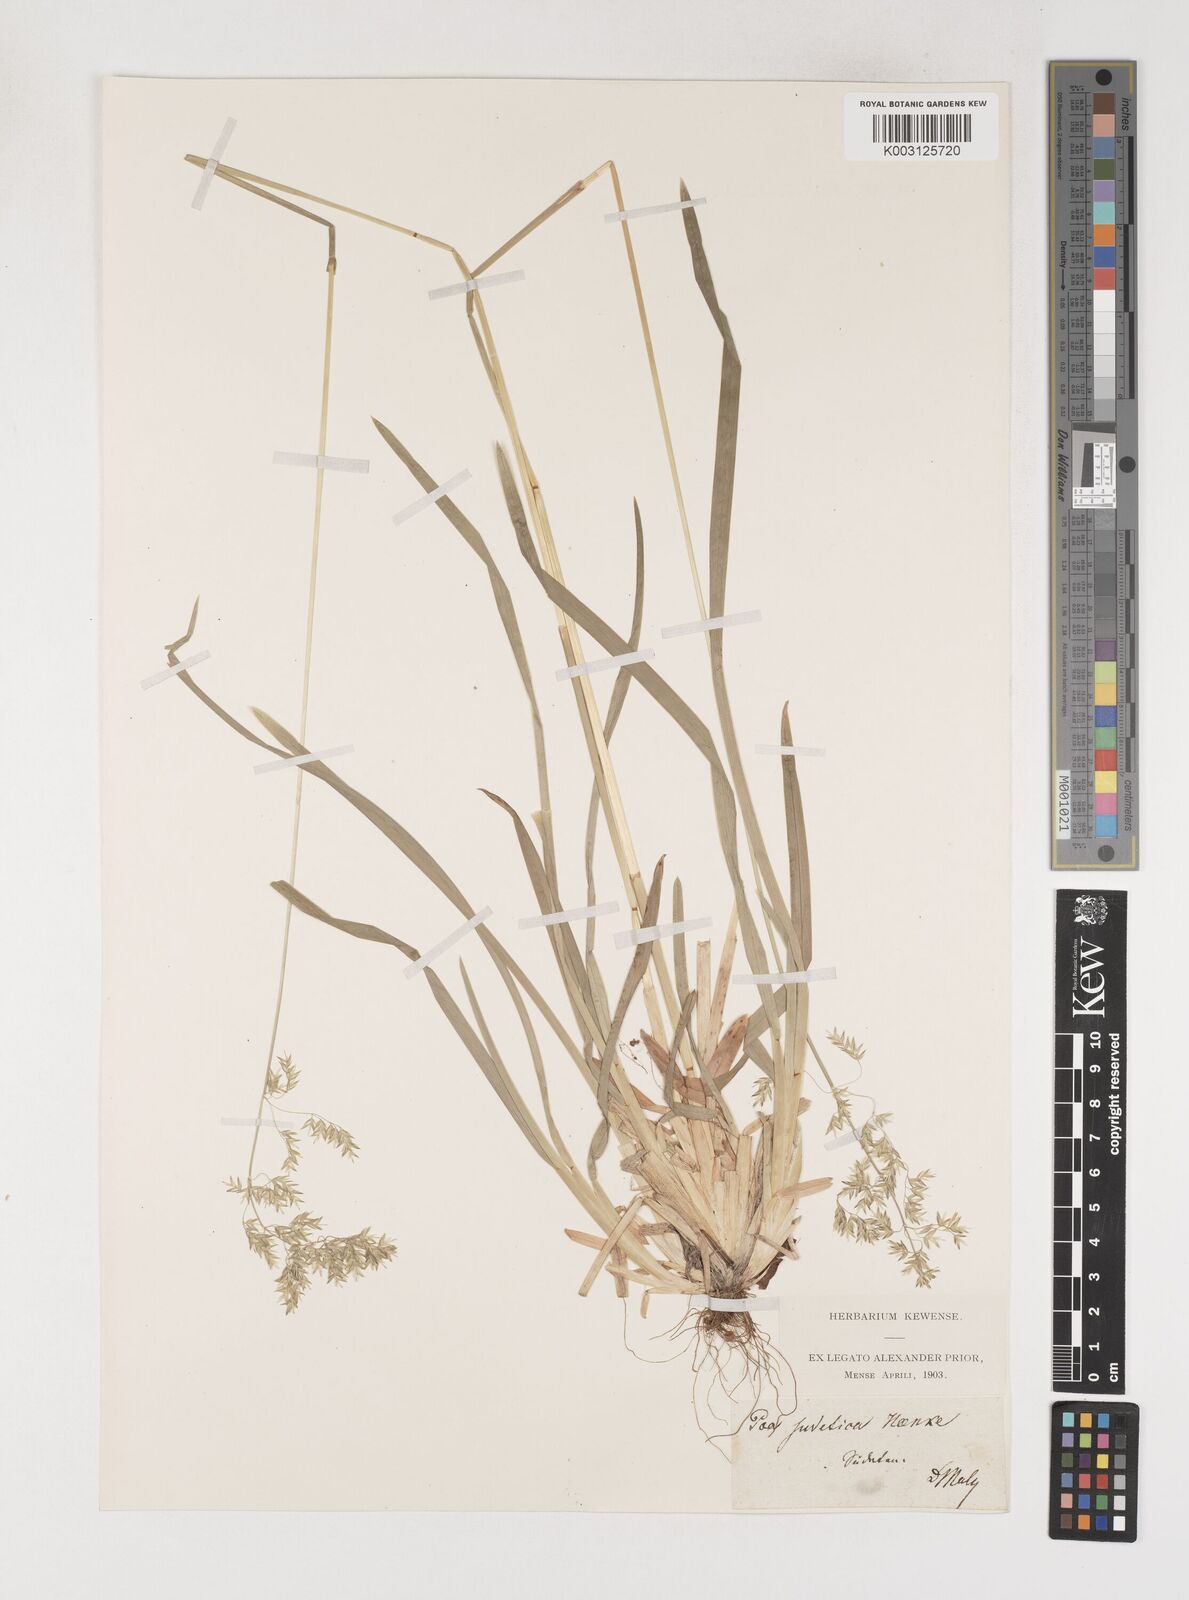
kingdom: Plantae
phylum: Tracheophyta
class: Liliopsida
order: Poales
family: Poaceae
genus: Poa
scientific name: Poa chaixii
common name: Broad-leaved meadow-grass
